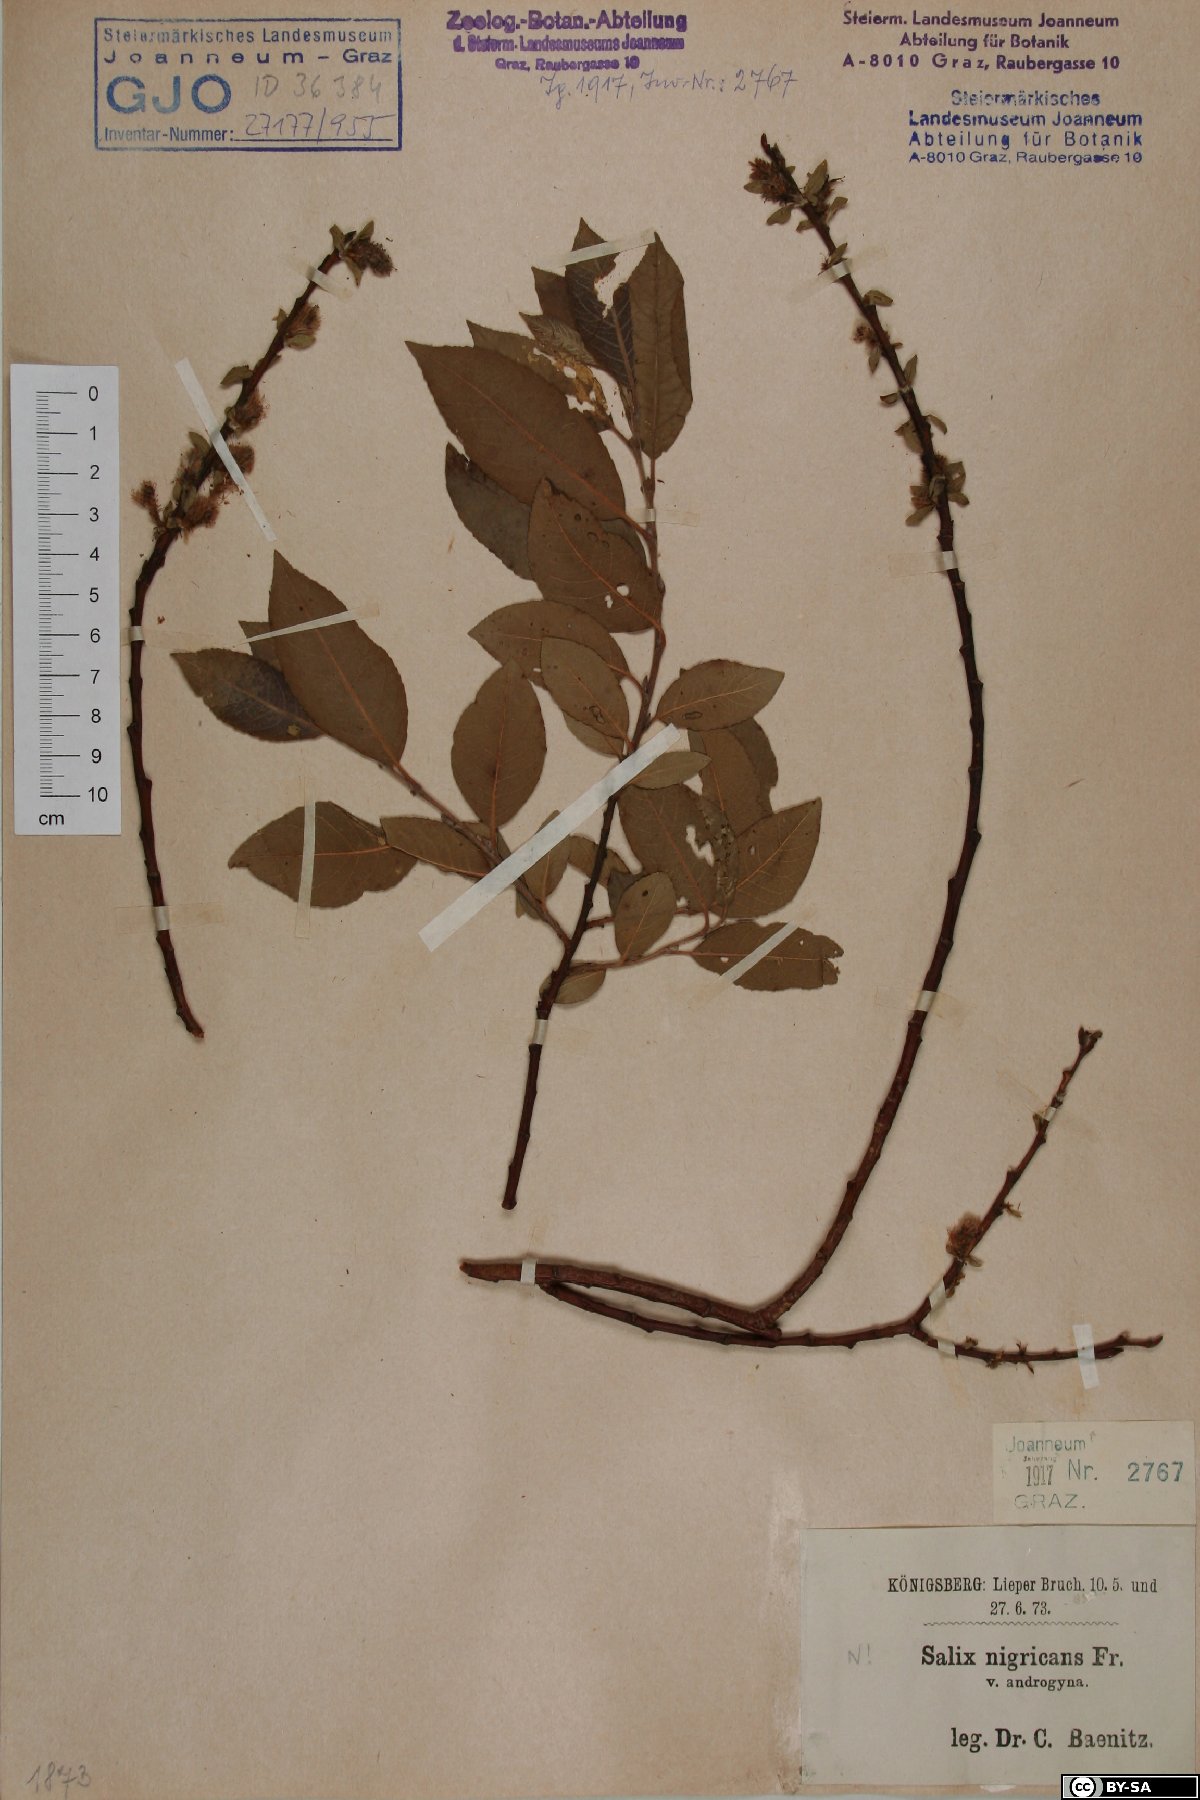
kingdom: Plantae
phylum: Tracheophyta
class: Magnoliopsida
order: Malpighiales
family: Salicaceae
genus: Salix
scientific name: Salix myrsinifolia
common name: Dark-leaved willow
